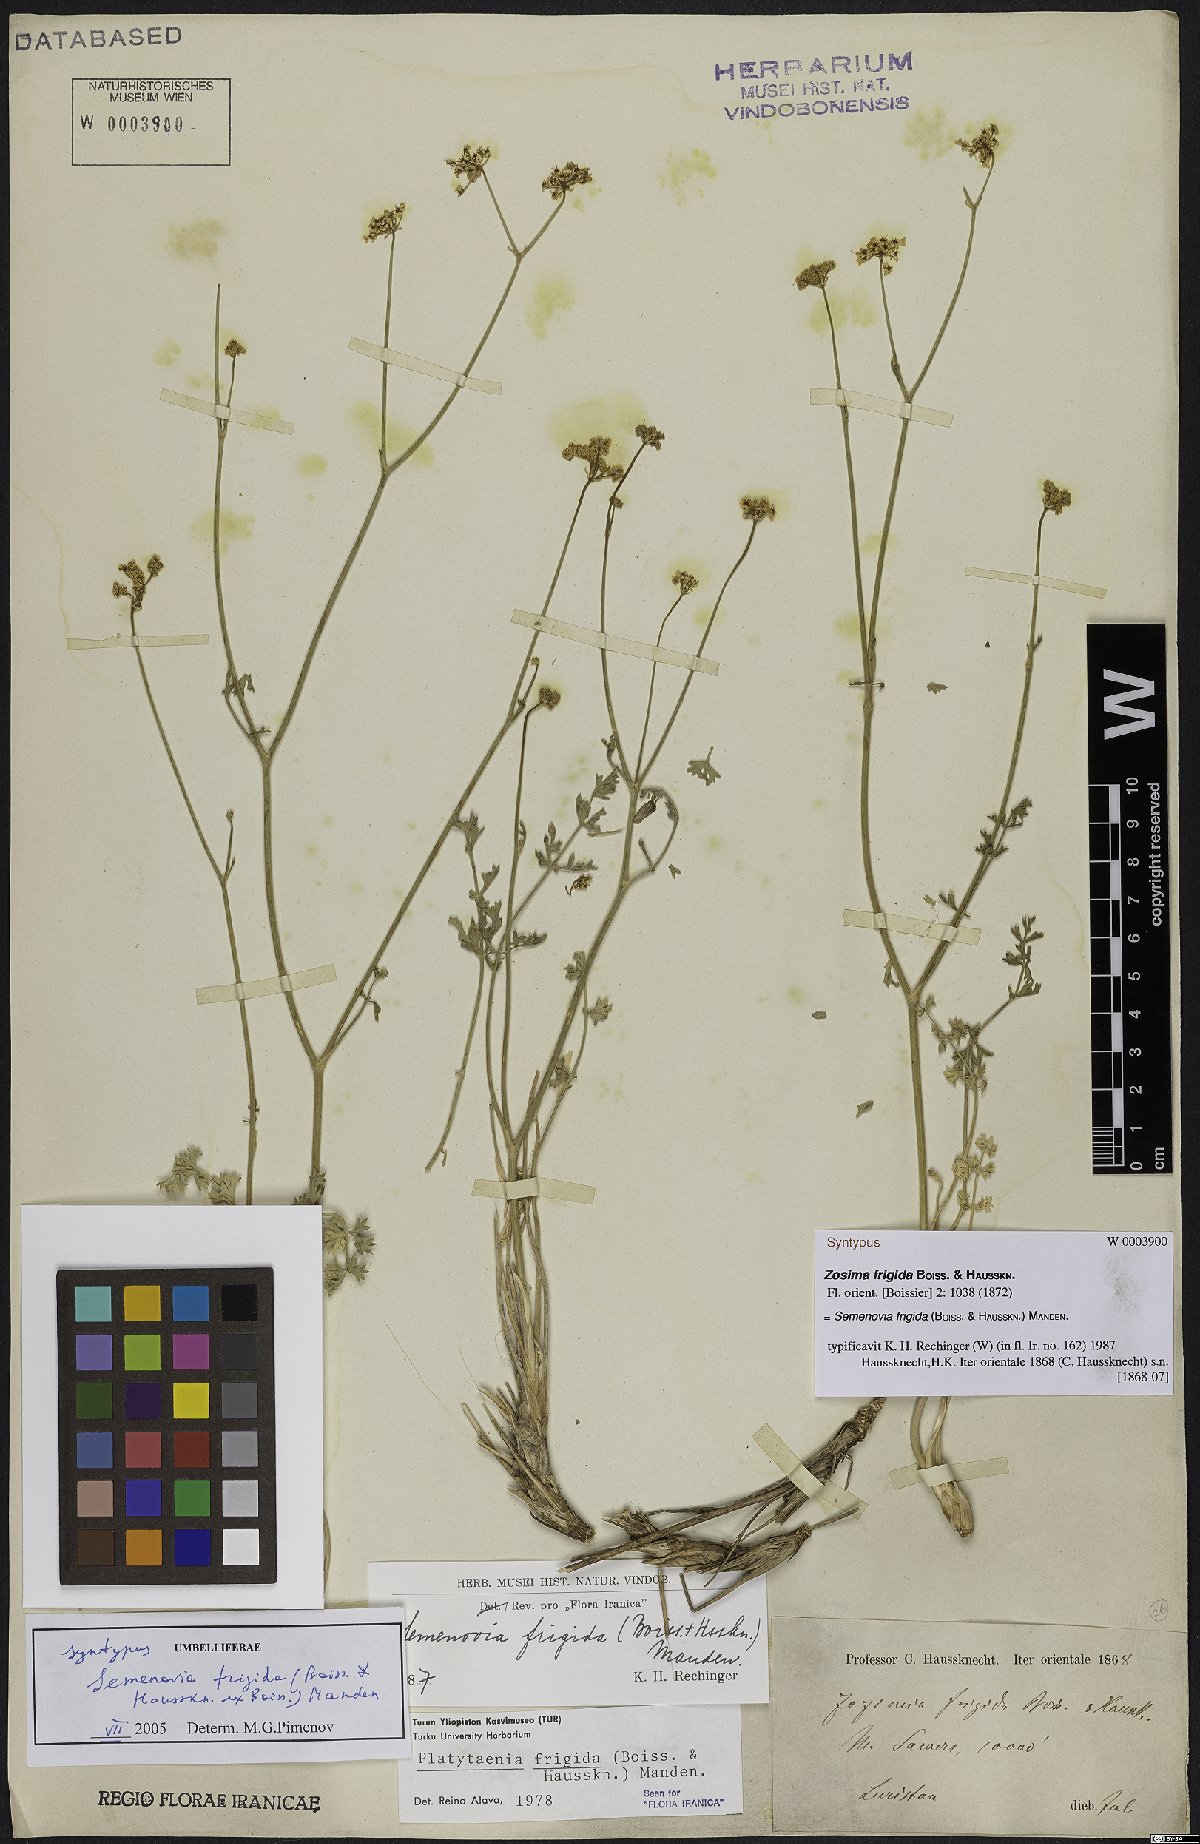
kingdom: Plantae
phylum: Tracheophyta
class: Magnoliopsida
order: Apiales
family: Apiaceae
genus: Semenovia
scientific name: Semenovia frigida
